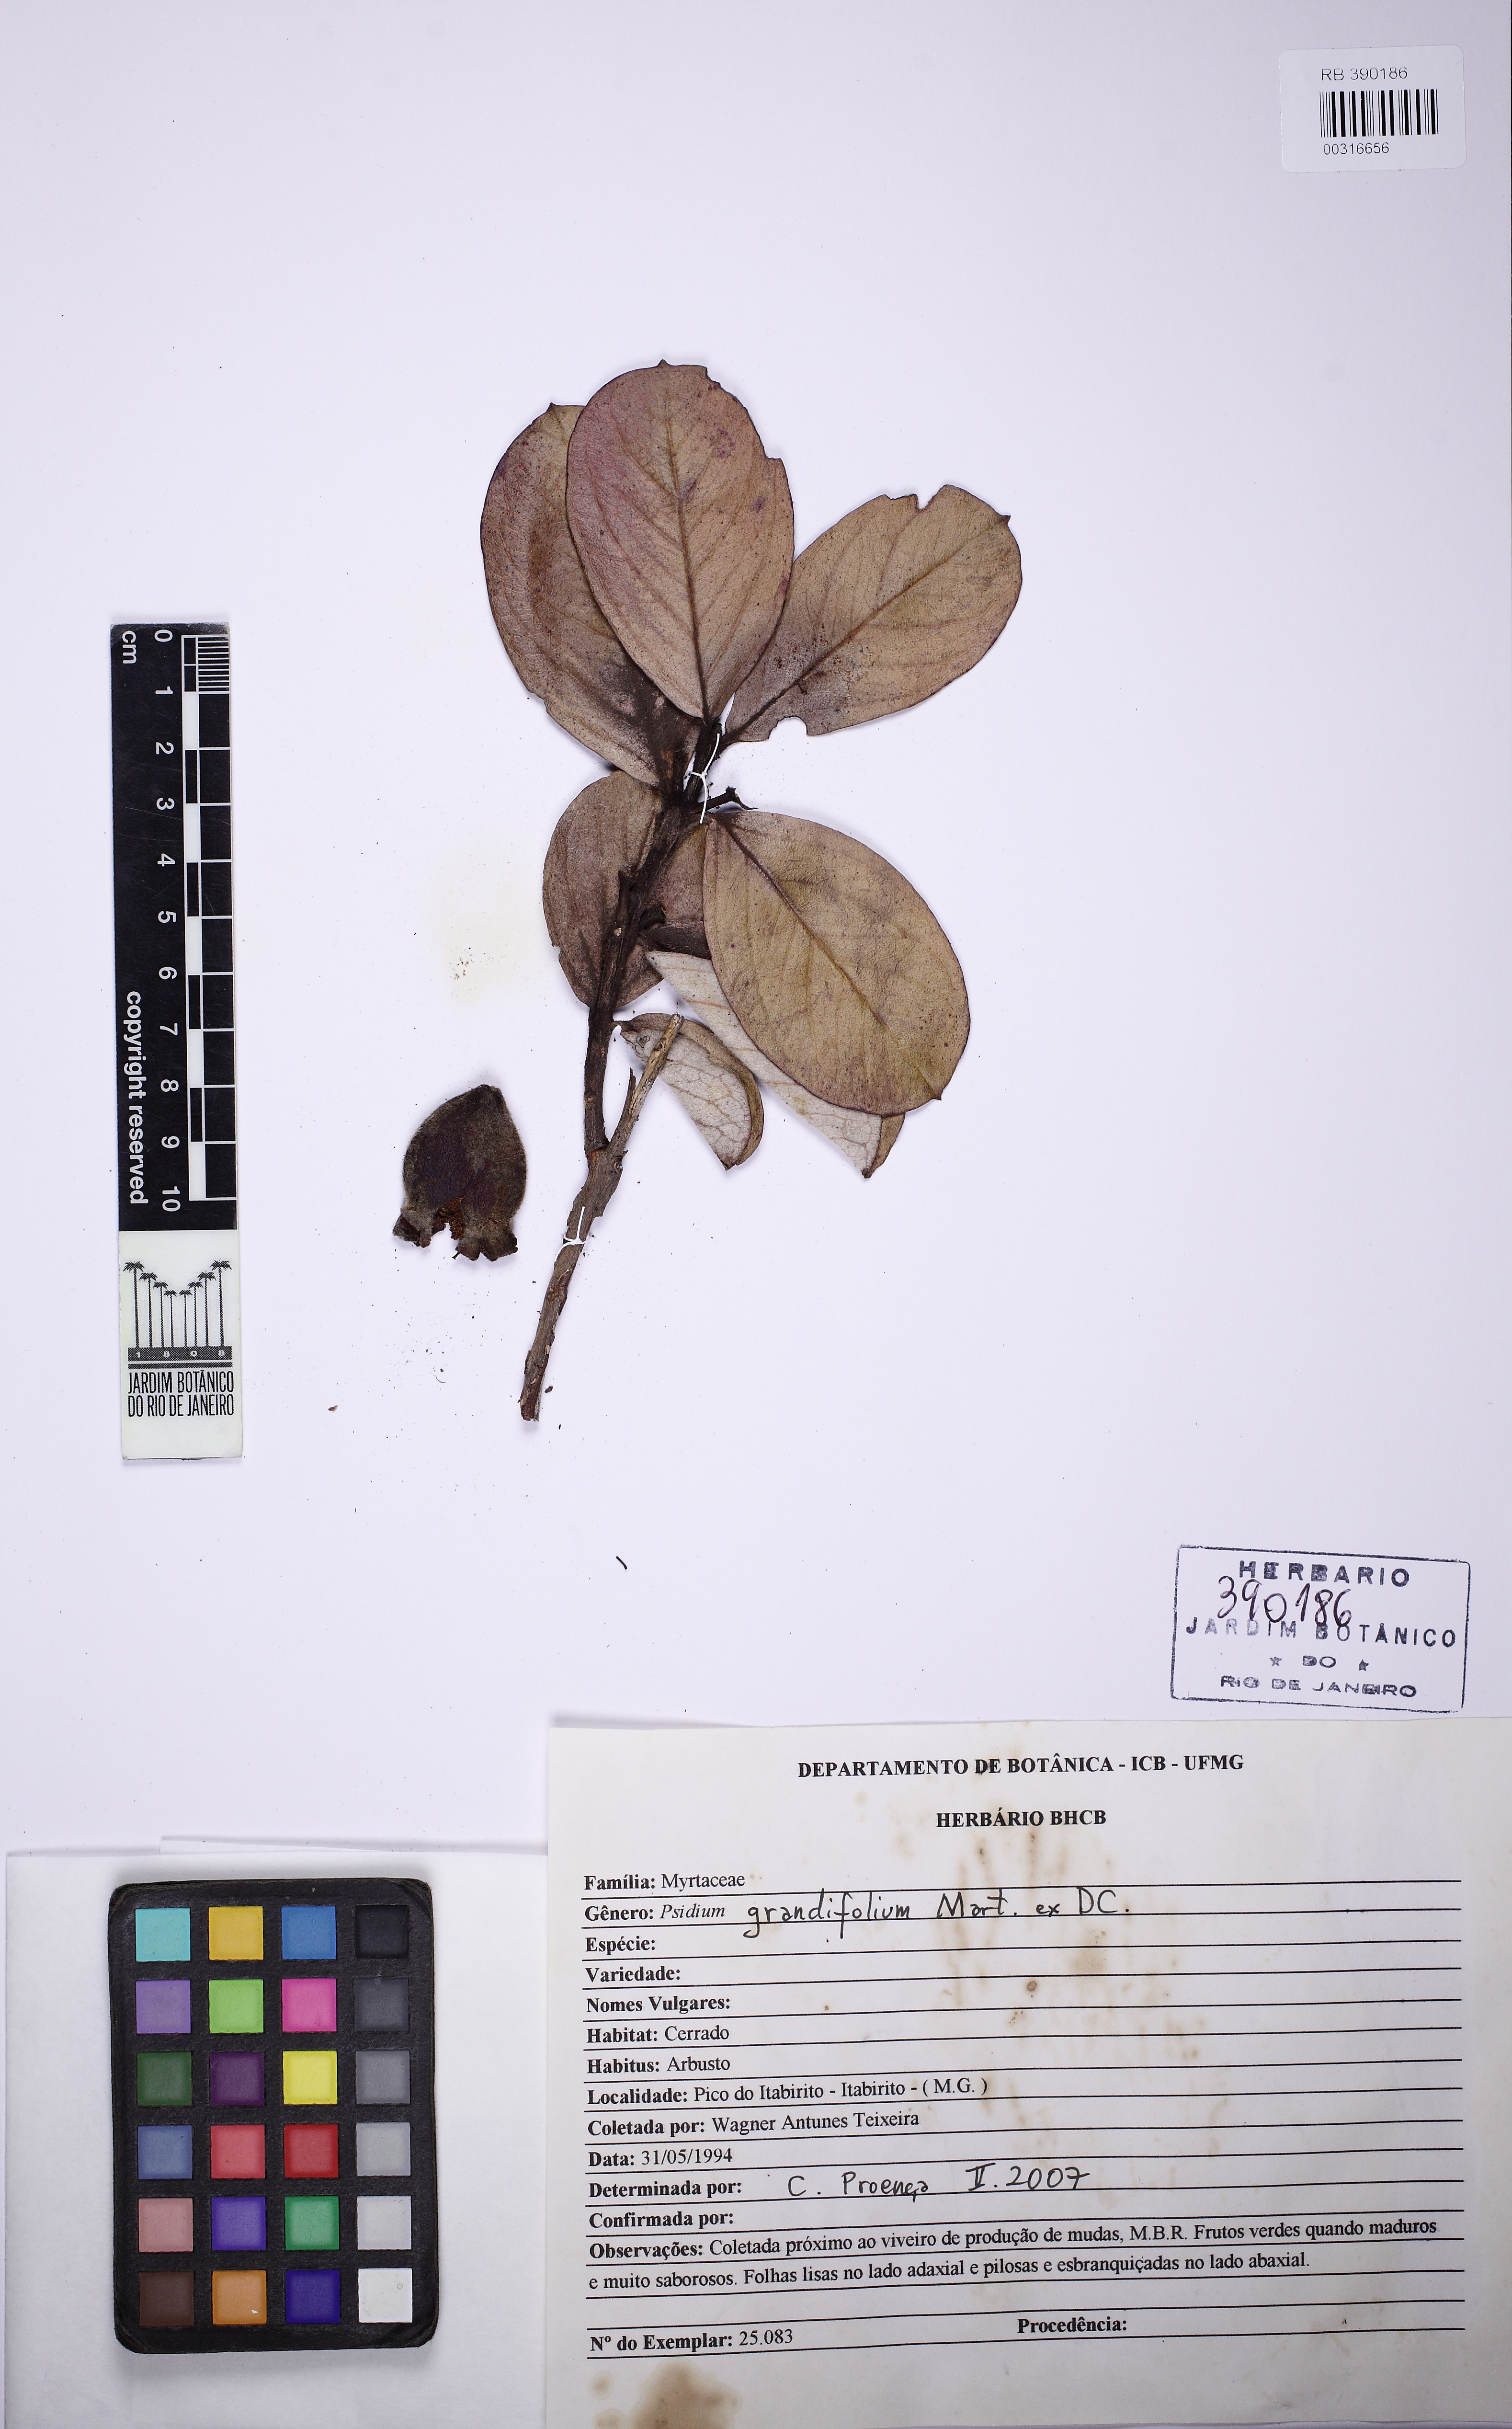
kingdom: Plantae
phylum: Tracheophyta
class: Magnoliopsida
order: Myrtales
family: Myrtaceae
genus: Psidium
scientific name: Psidium grandifolium
